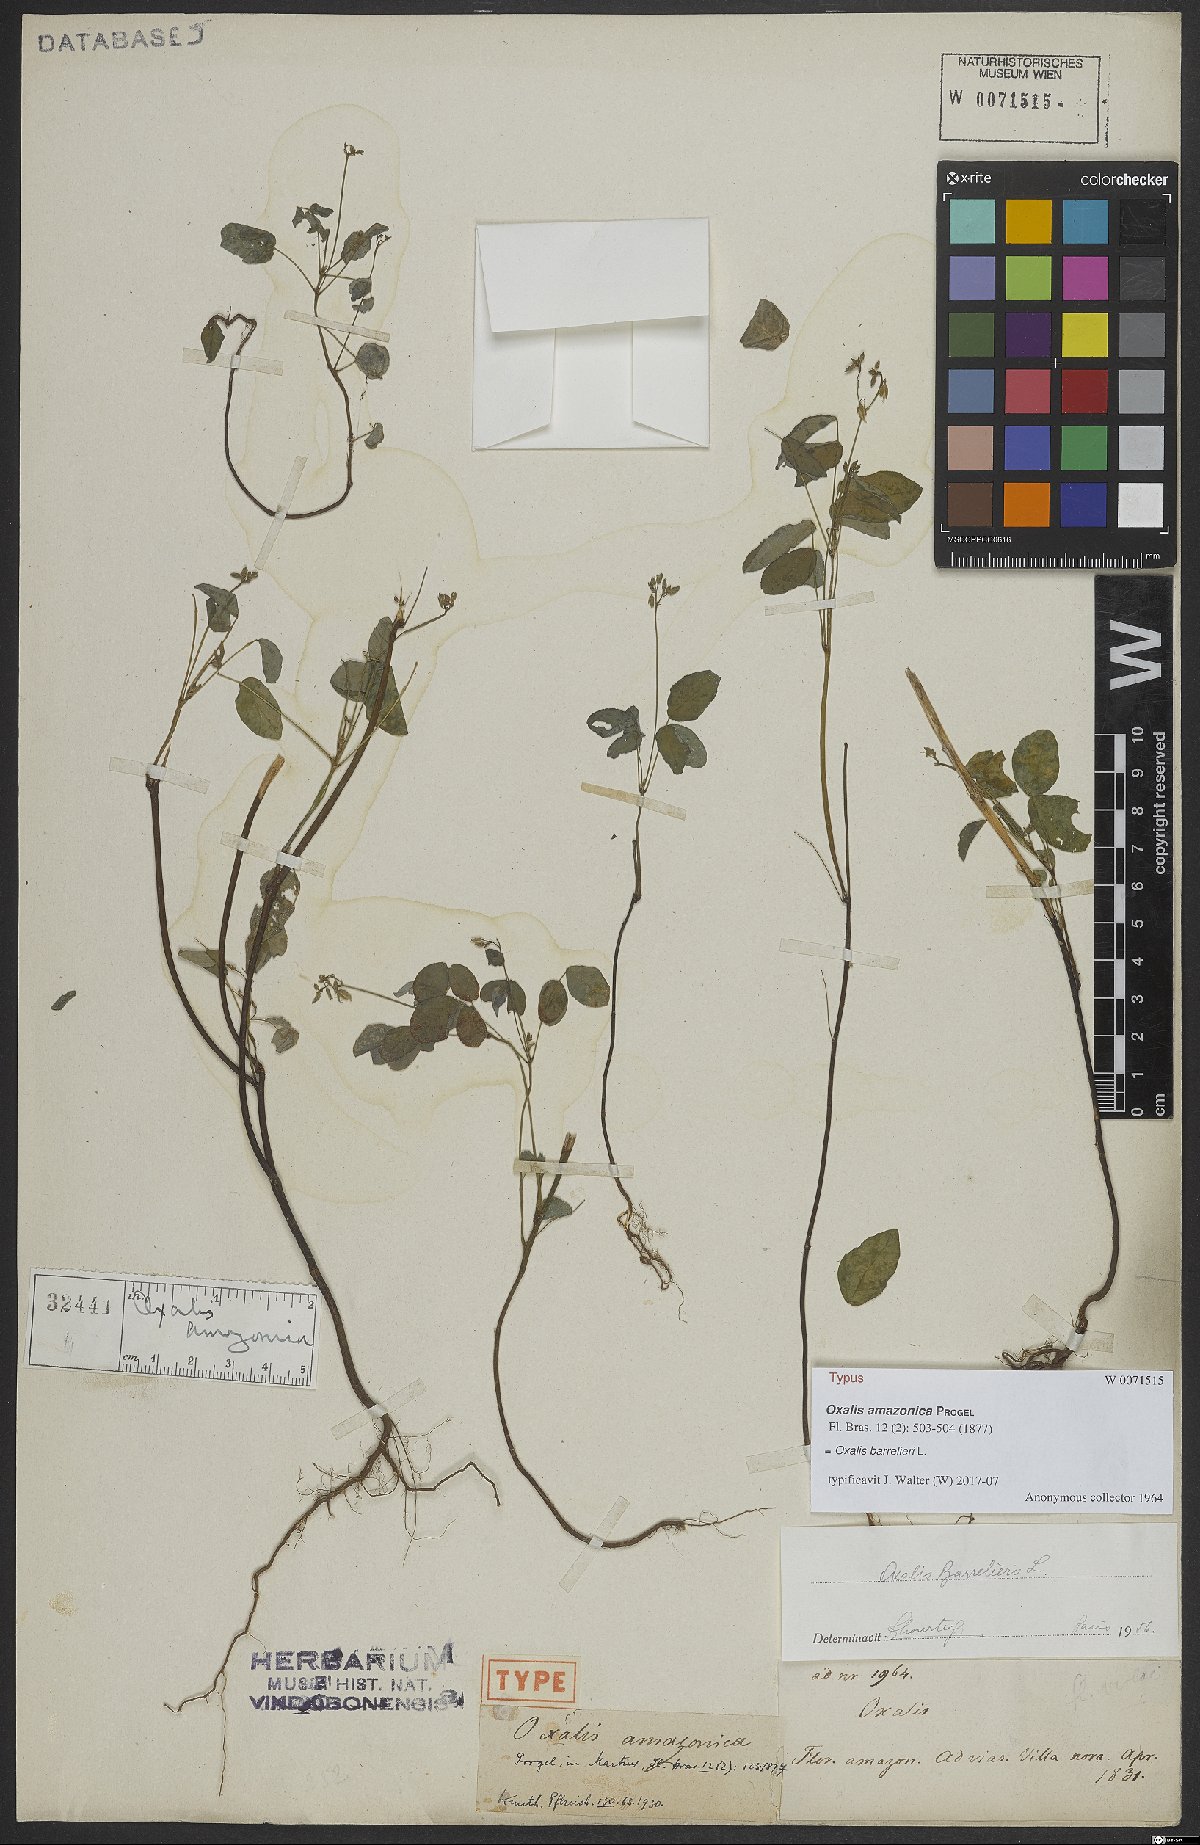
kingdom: Plantae
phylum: Tracheophyta
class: Magnoliopsida
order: Oxalidales
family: Oxalidaceae
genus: Oxalis
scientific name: Oxalis barrelieri
